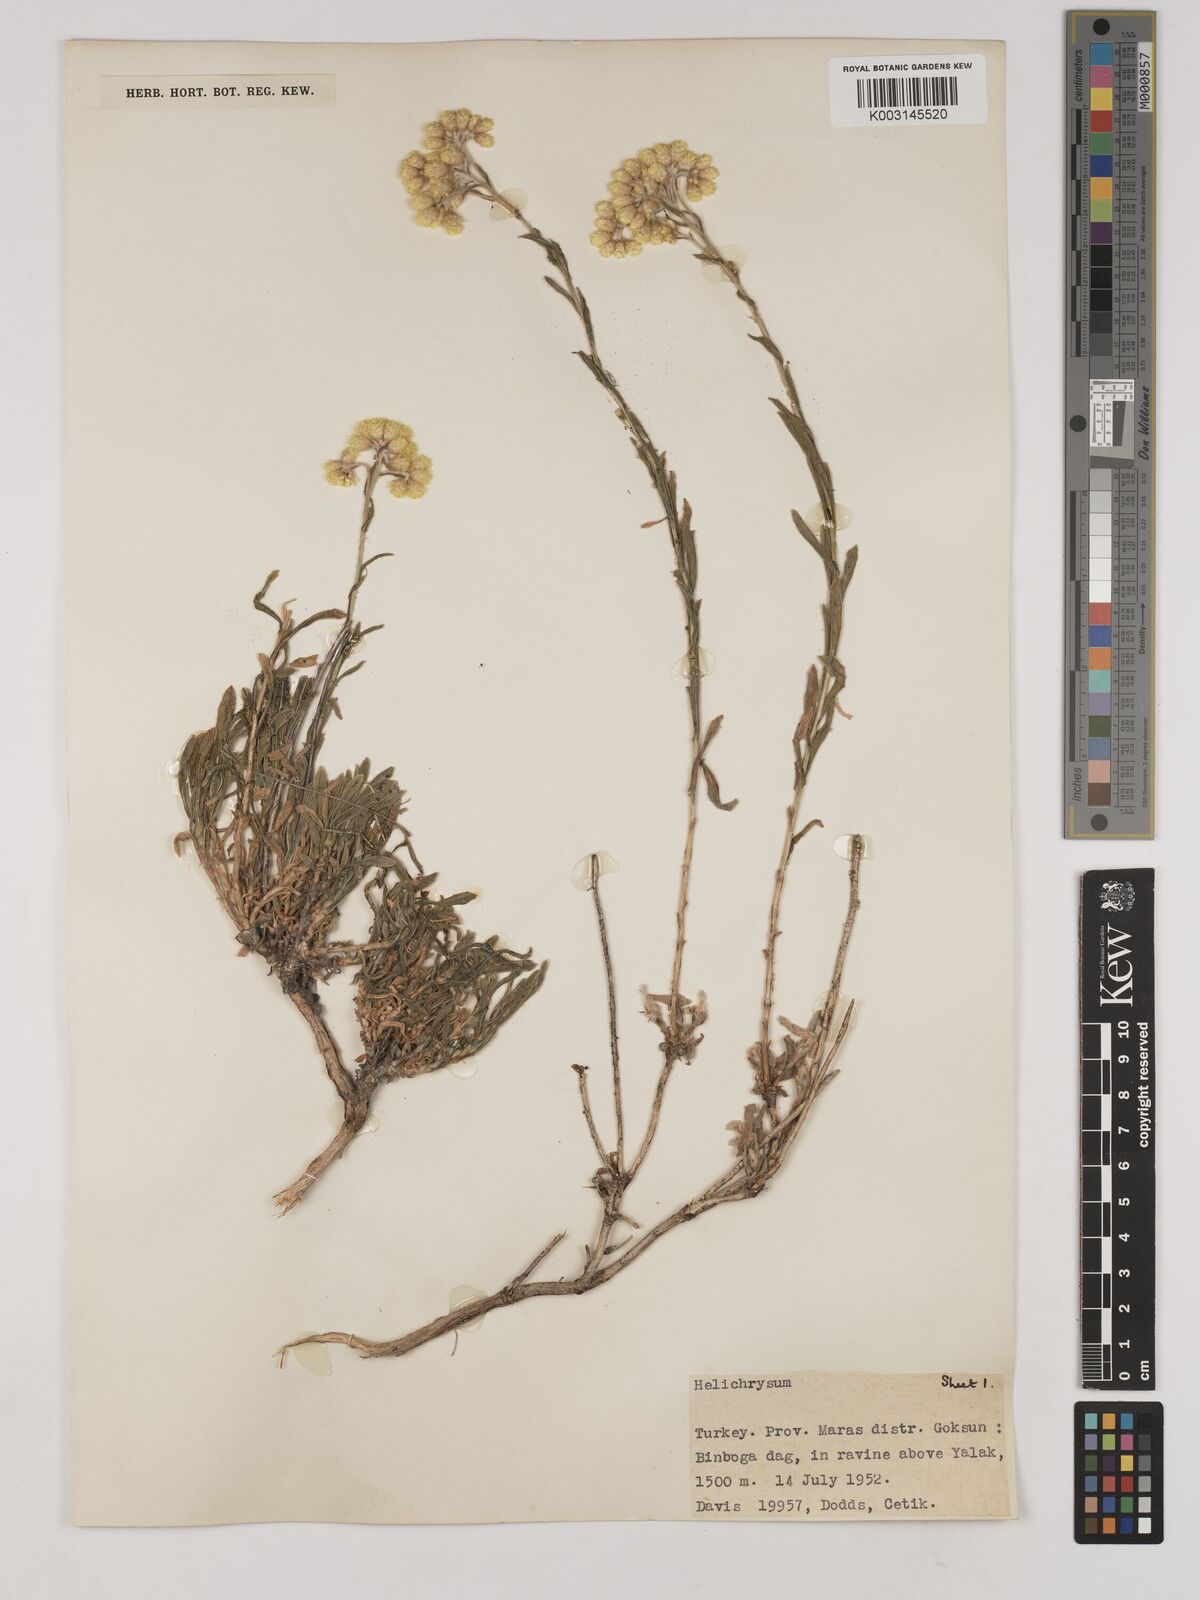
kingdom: Plantae
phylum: Tracheophyta
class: Magnoliopsida
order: Asterales
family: Asteraceae
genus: Helichrysum
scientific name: Helichrysum araxinum
